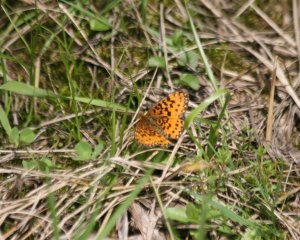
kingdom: Animalia
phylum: Arthropoda
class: Insecta
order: Lepidoptera
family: Nymphalidae
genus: Boloria
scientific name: Boloria selene
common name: Silver-bordered Fritillary
